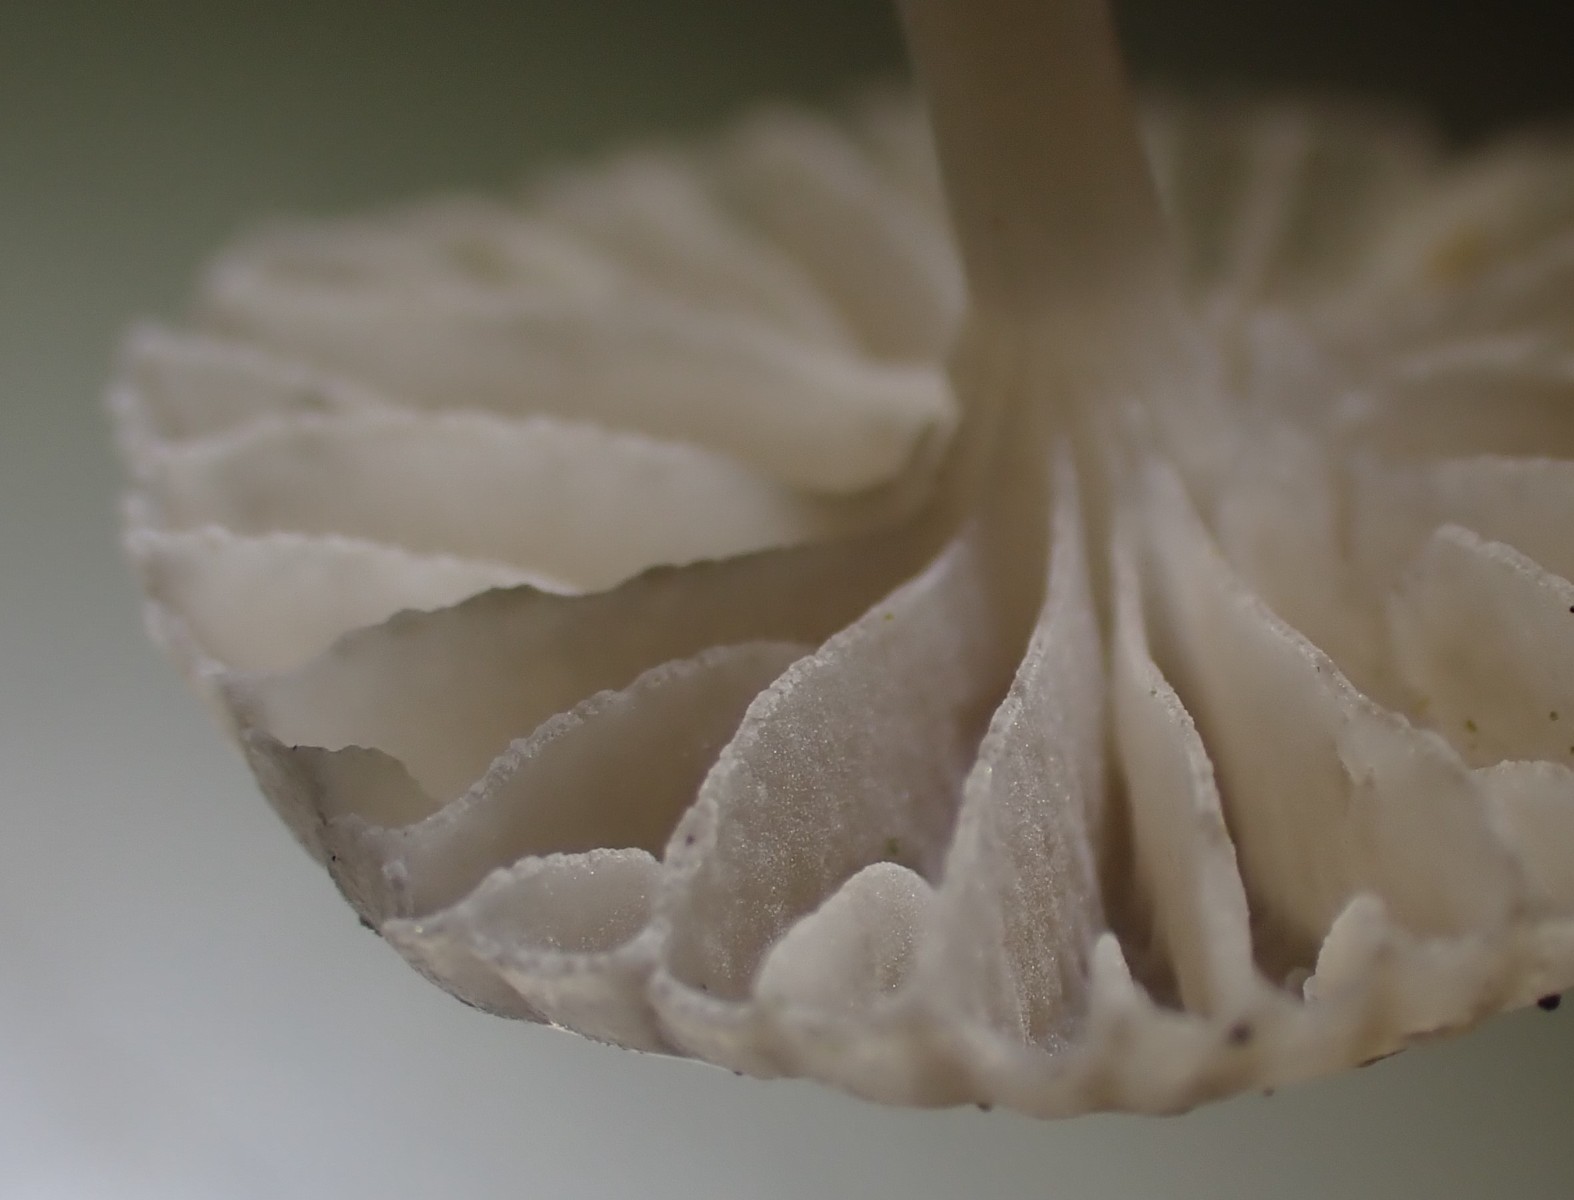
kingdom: Fungi
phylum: Basidiomycota
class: Agaricomycetes
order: Agaricales
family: Mycenaceae
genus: Mycena
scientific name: Mycena clavicularis
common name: fyrre-huesvamp
